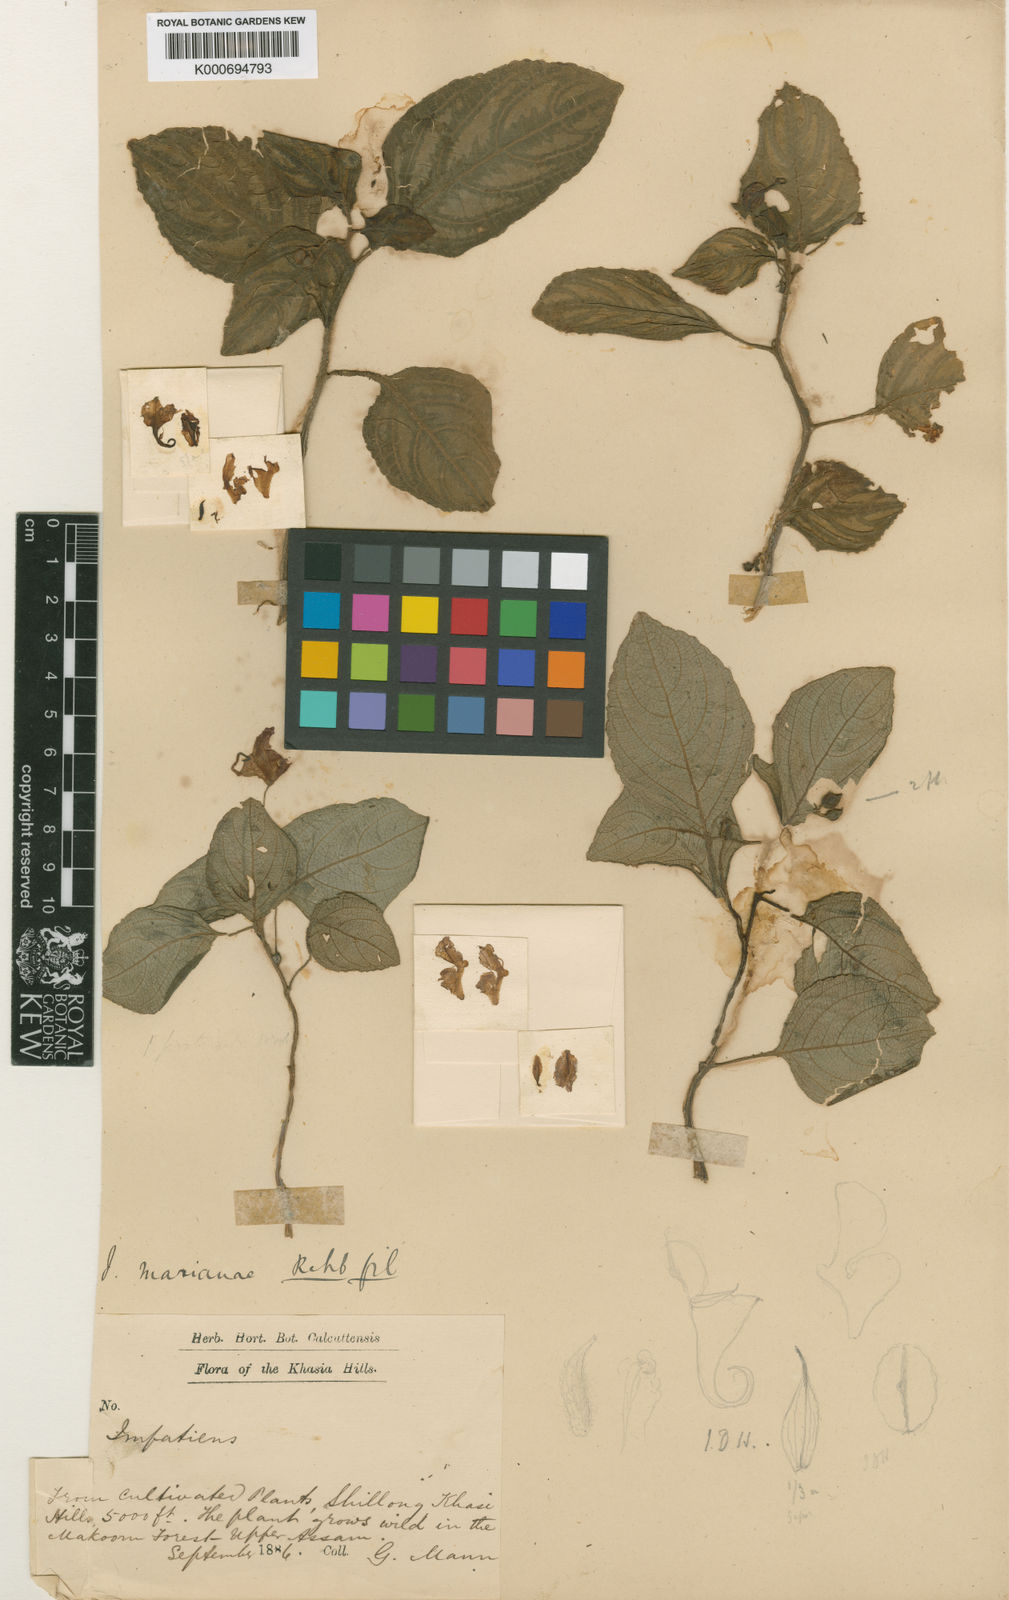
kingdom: Plantae
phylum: Tracheophyta
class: Magnoliopsida
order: Ericales
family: Balsaminaceae
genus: Impatiens
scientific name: Impatiens
